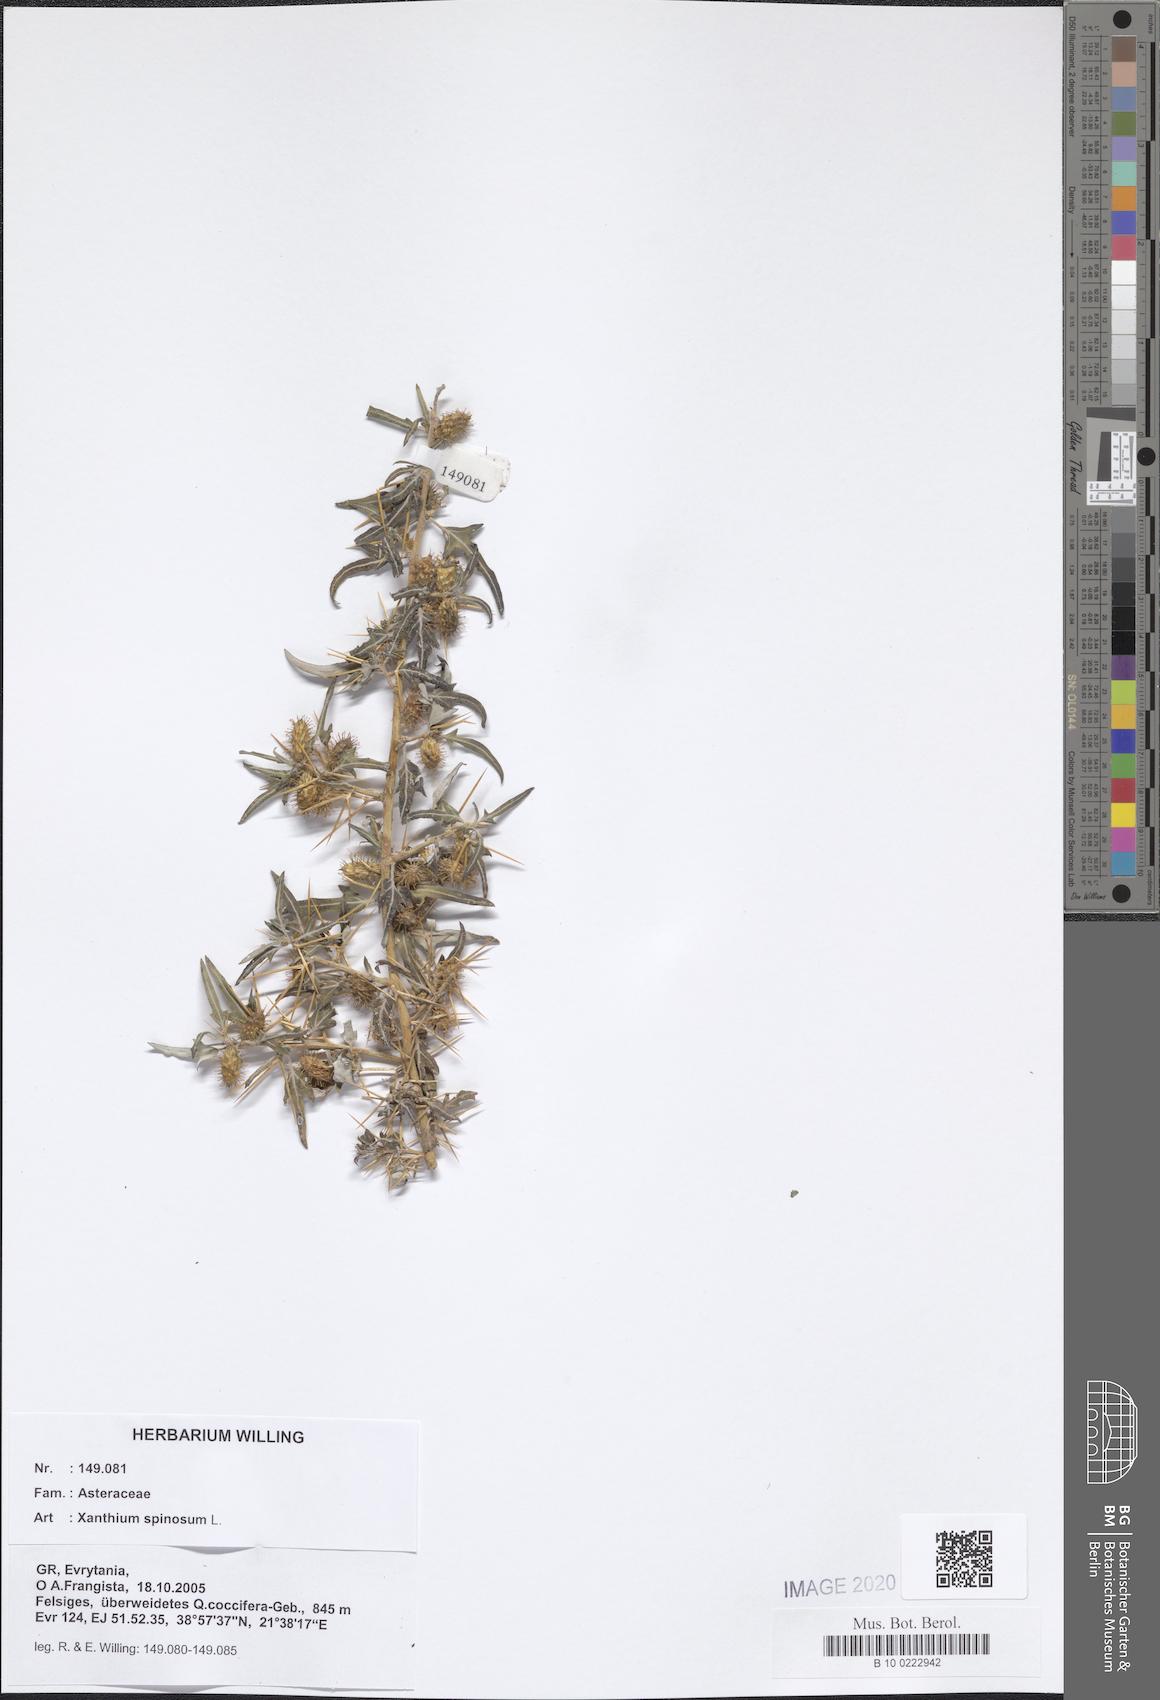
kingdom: Plantae
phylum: Tracheophyta
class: Magnoliopsida
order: Asterales
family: Asteraceae
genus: Xanthium
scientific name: Xanthium spinosum
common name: Spiny cocklebur
